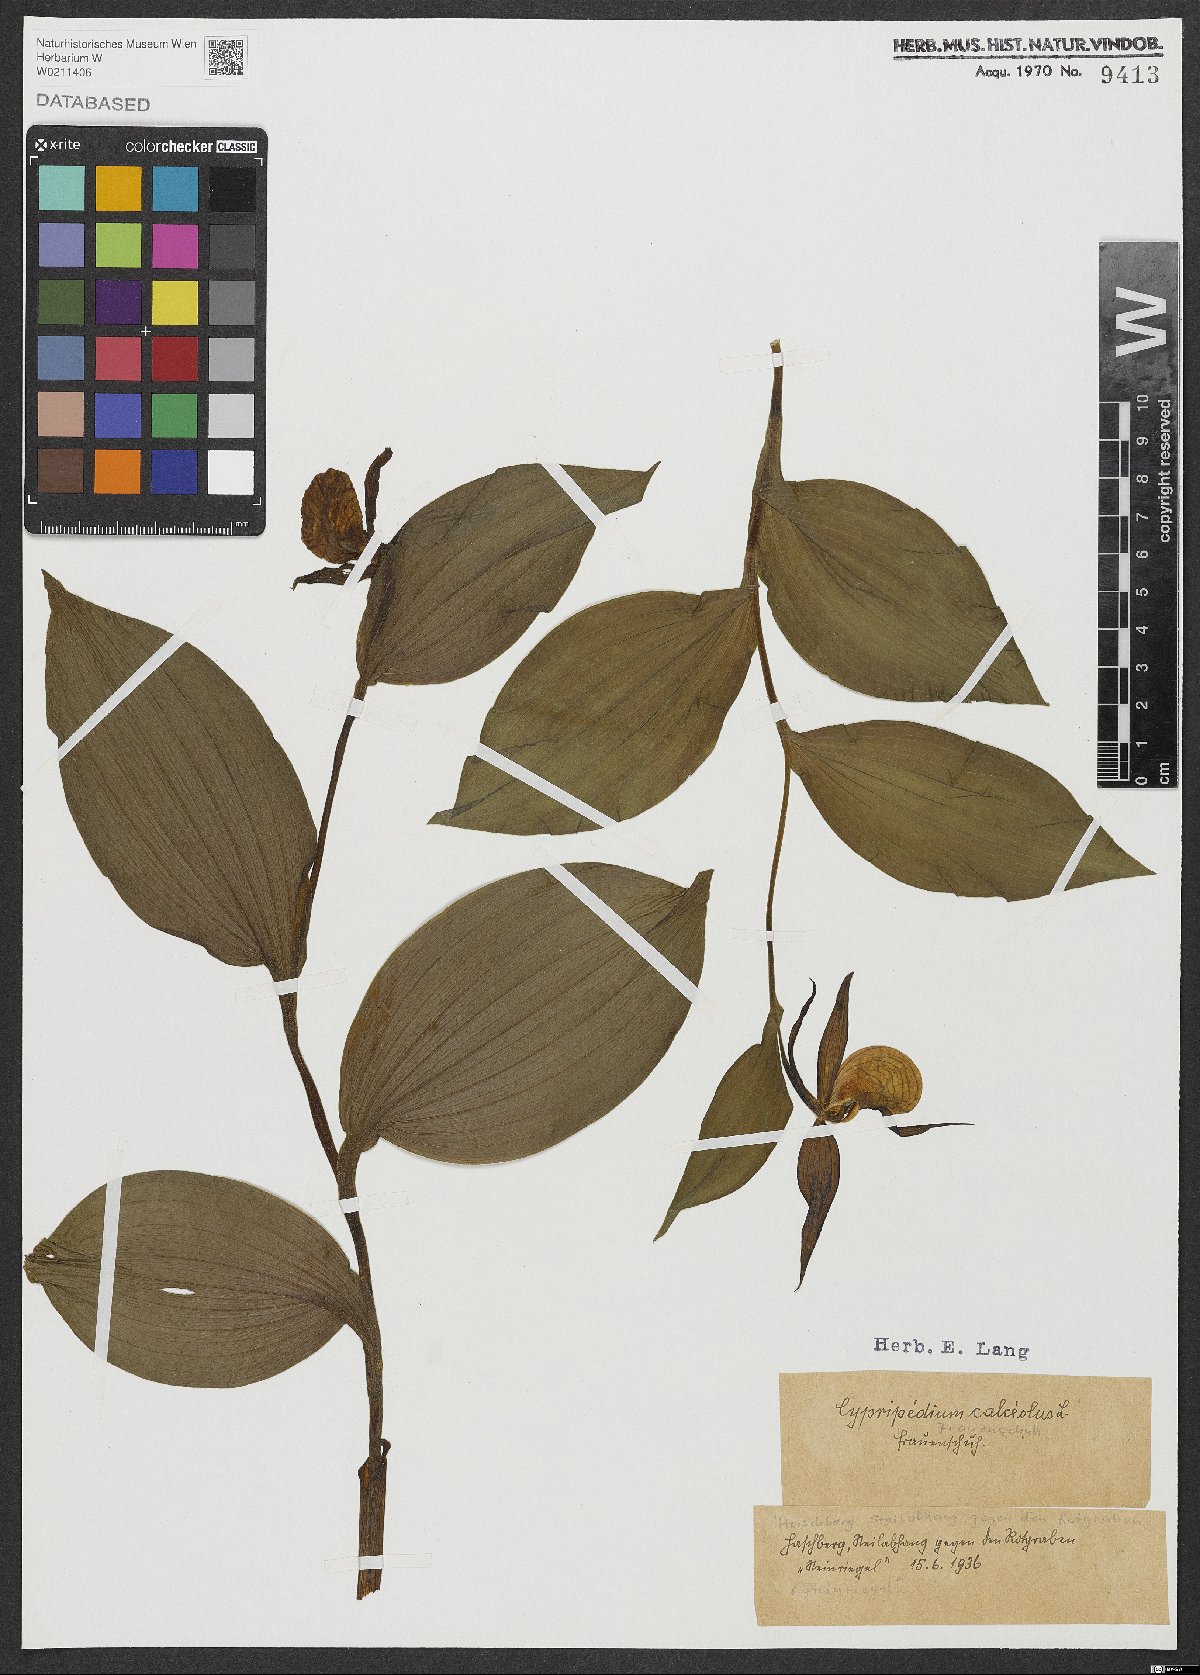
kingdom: Plantae
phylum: Tracheophyta
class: Liliopsida
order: Asparagales
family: Orchidaceae
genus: Cypripedium
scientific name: Cypripedium calceolus
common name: Lady's-slipper
